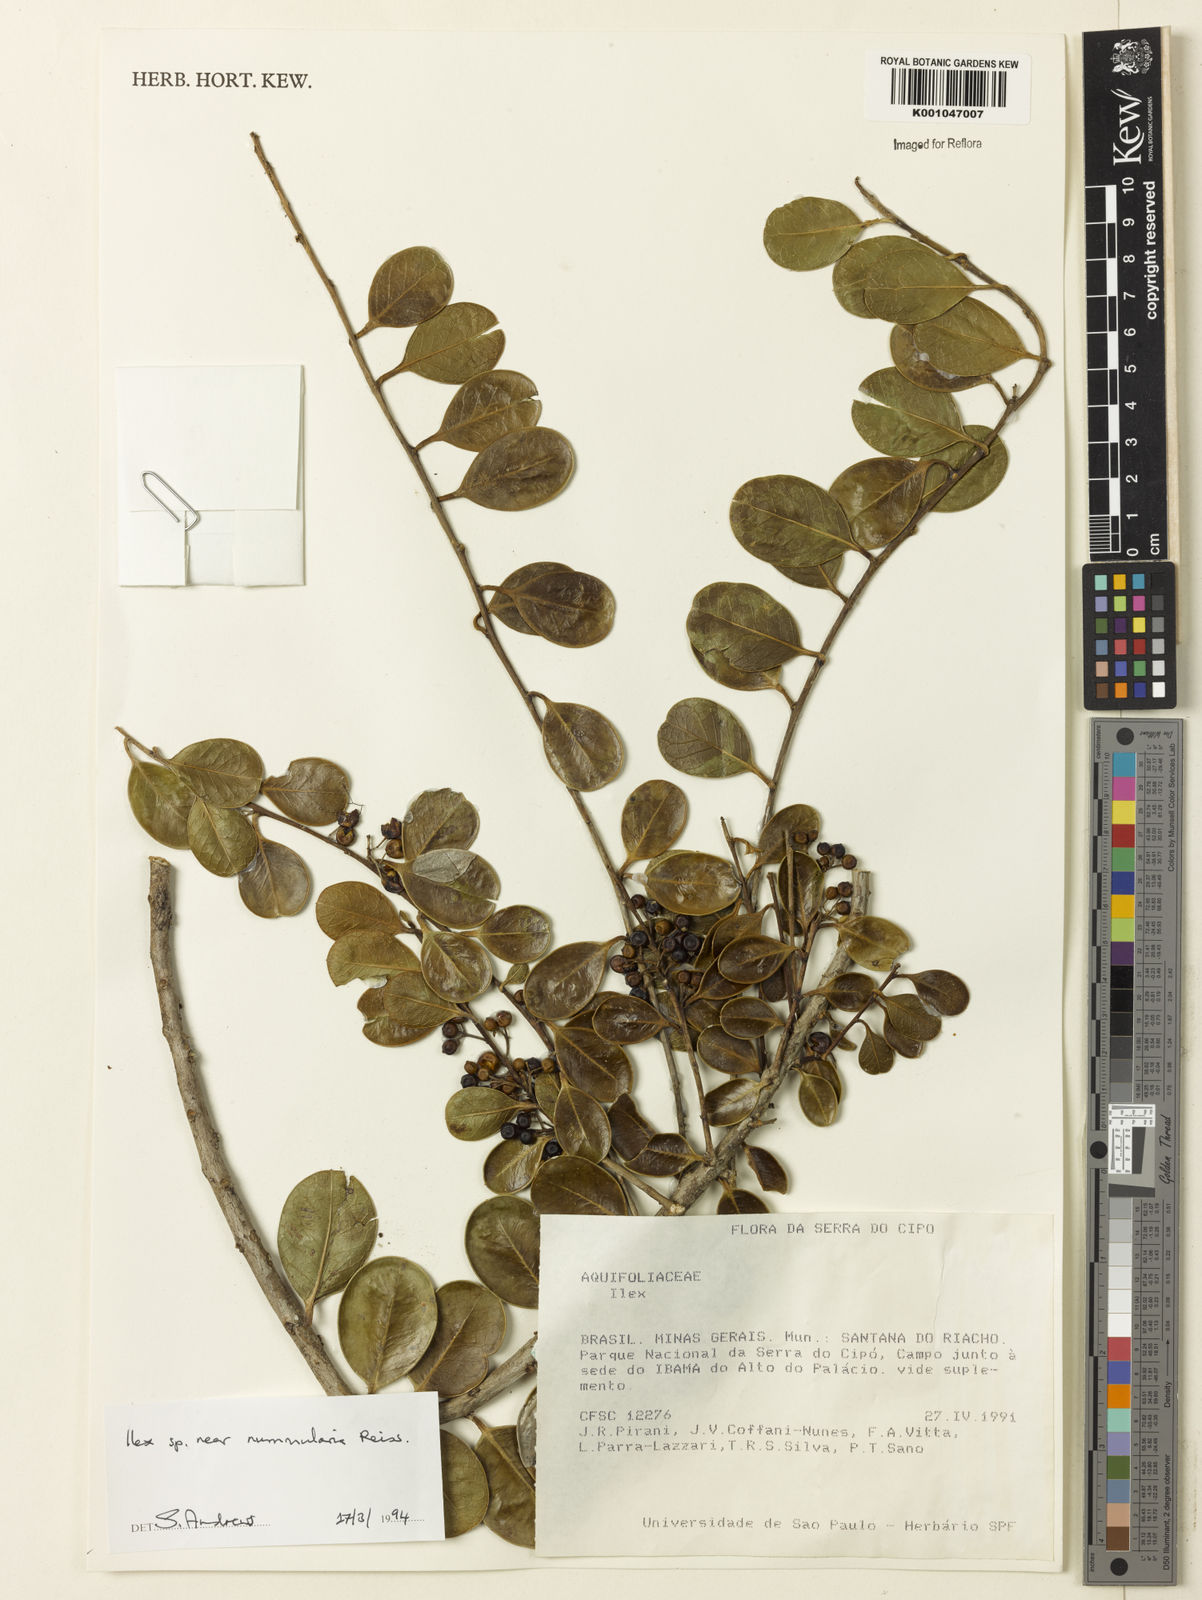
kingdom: Plantae
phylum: Tracheophyta
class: Magnoliopsida
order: Aquifoliales
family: Aquifoliaceae
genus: Ilex
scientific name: Ilex nummularia
